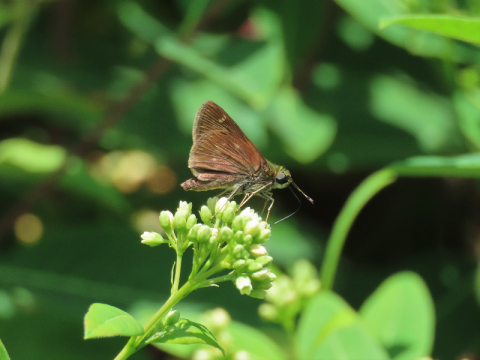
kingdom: Animalia
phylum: Arthropoda
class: Insecta
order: Lepidoptera
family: Hesperiidae
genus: Vernia
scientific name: Vernia verna
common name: Little Glassywing
